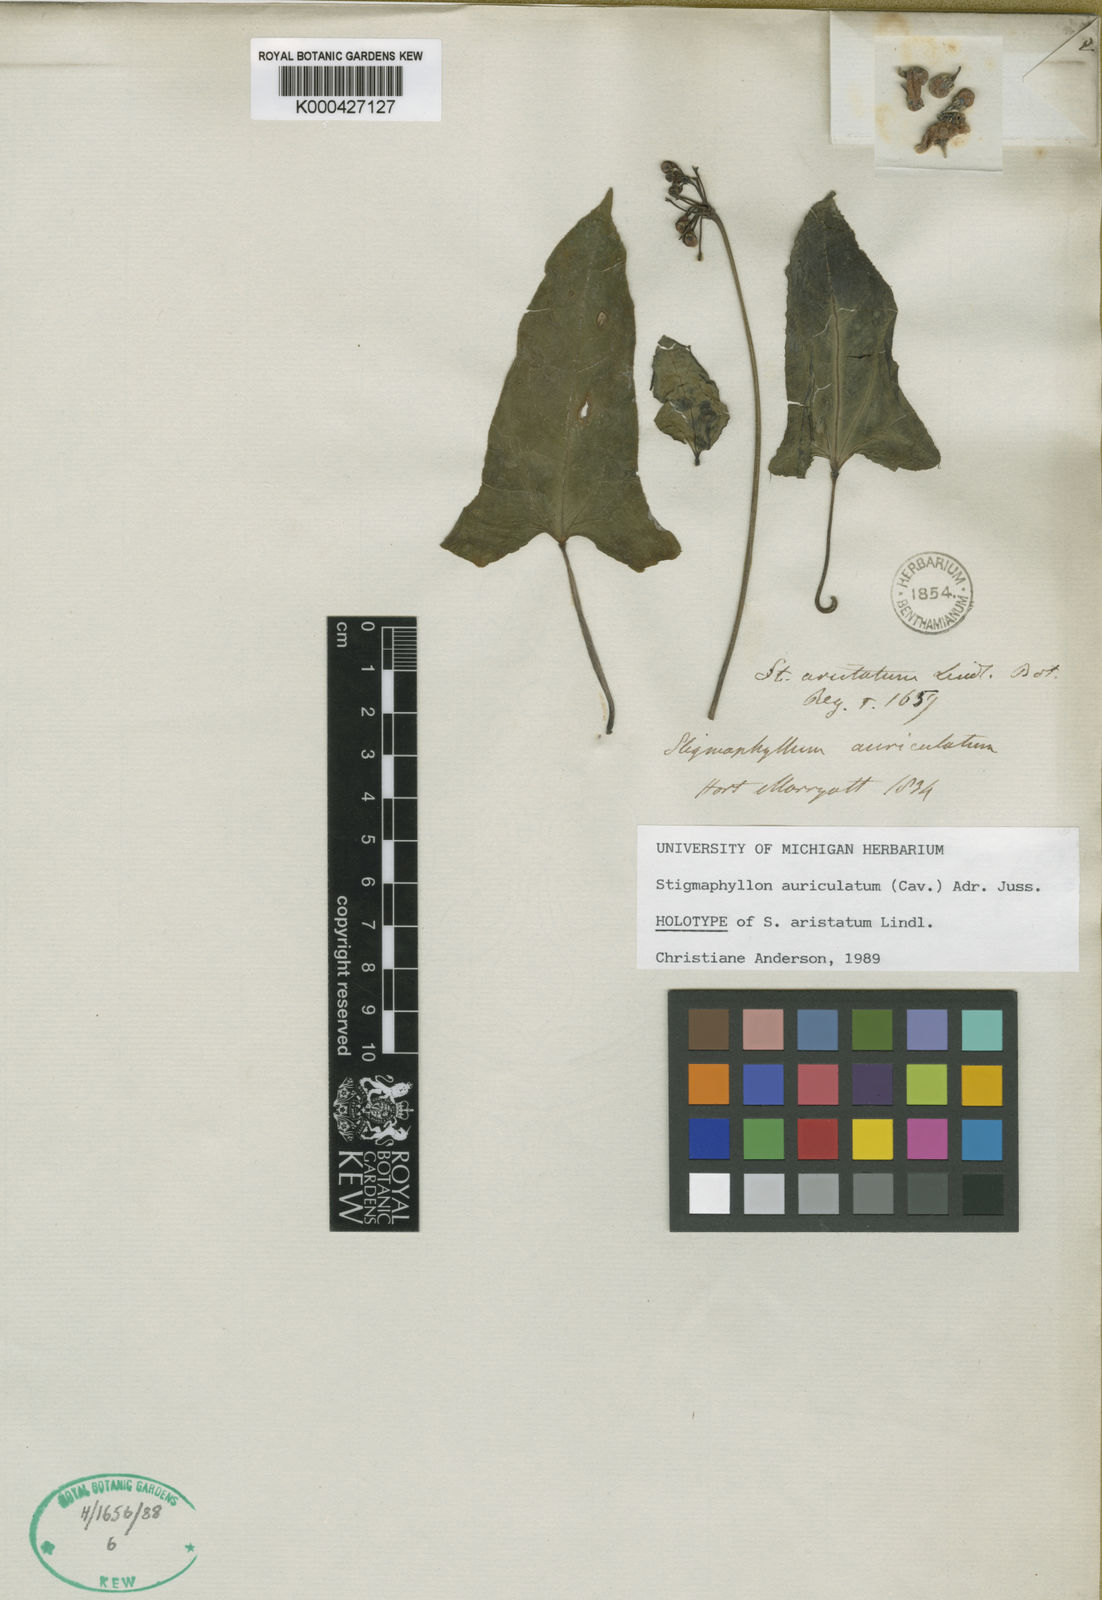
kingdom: Plantae
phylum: Tracheophyta
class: Magnoliopsida
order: Malpighiales
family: Malpighiaceae
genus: Stigmaphyllon
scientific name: Stigmaphyllon auriculatum
